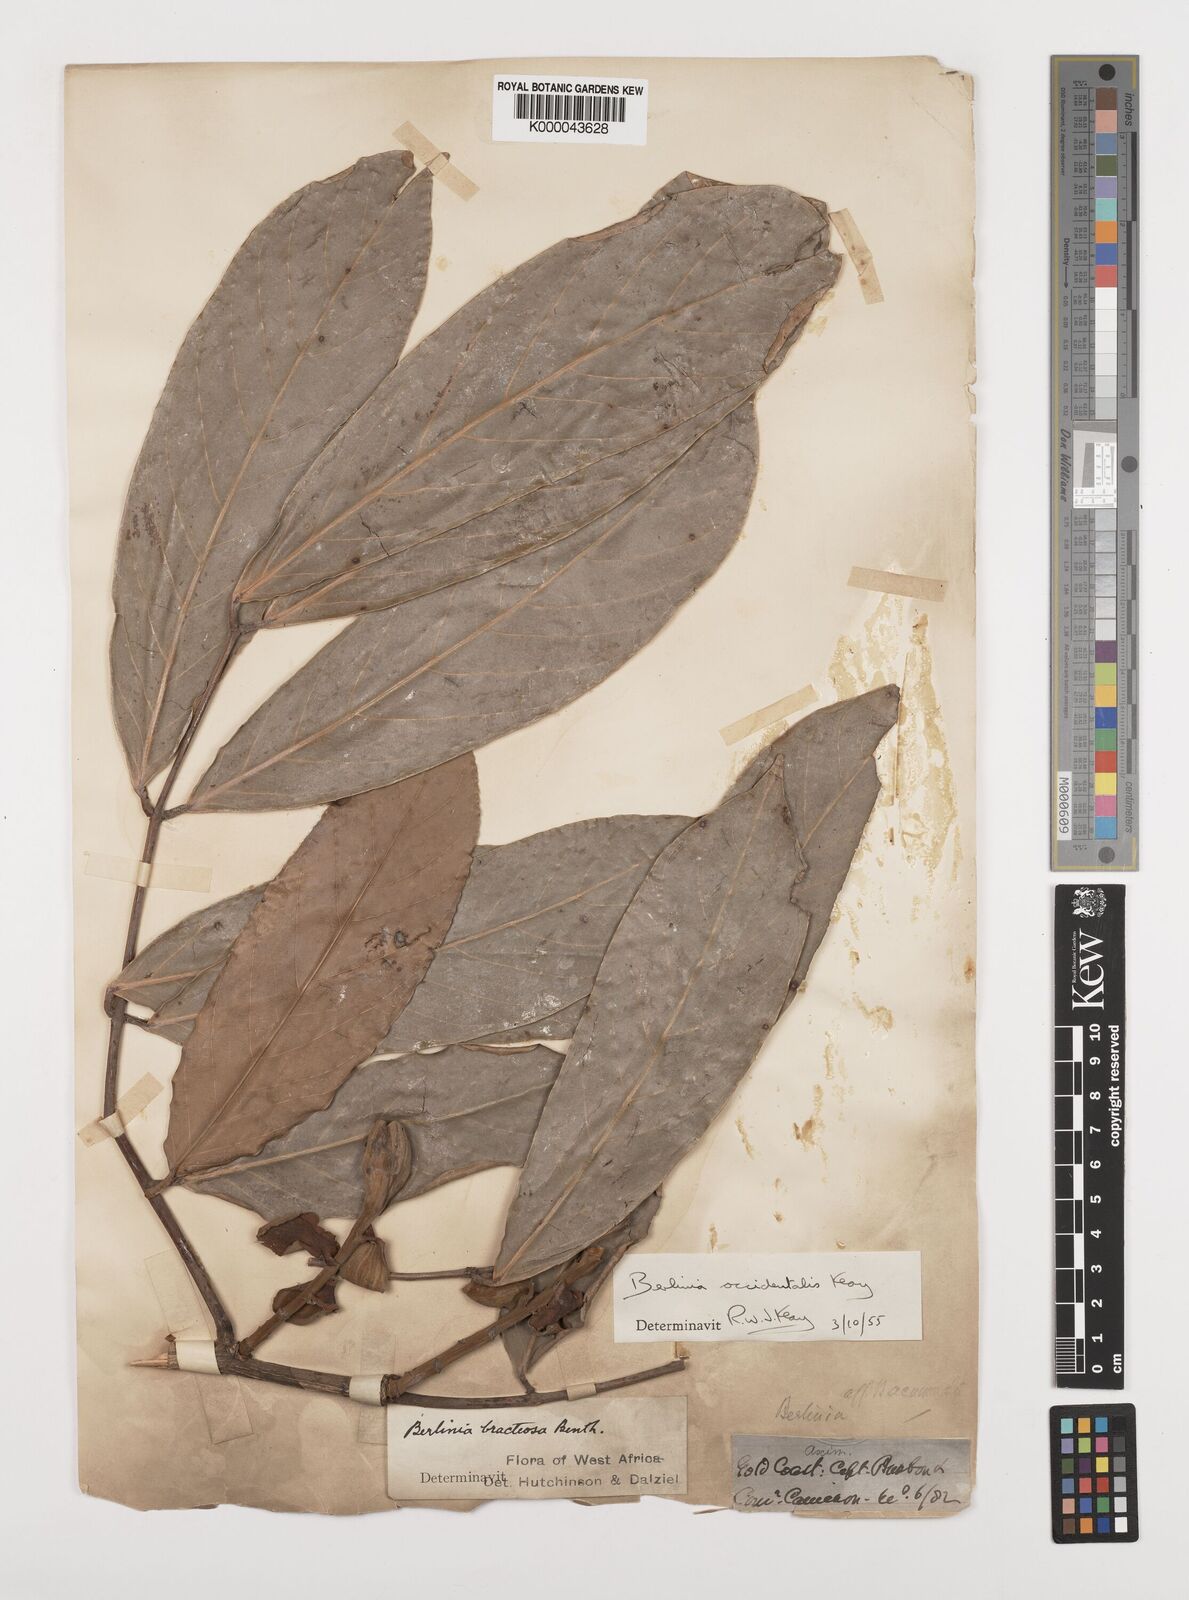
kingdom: Plantae
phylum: Tracheophyta
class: Magnoliopsida
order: Fabales
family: Fabaceae
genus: Berlinia
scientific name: Berlinia occidentalis
